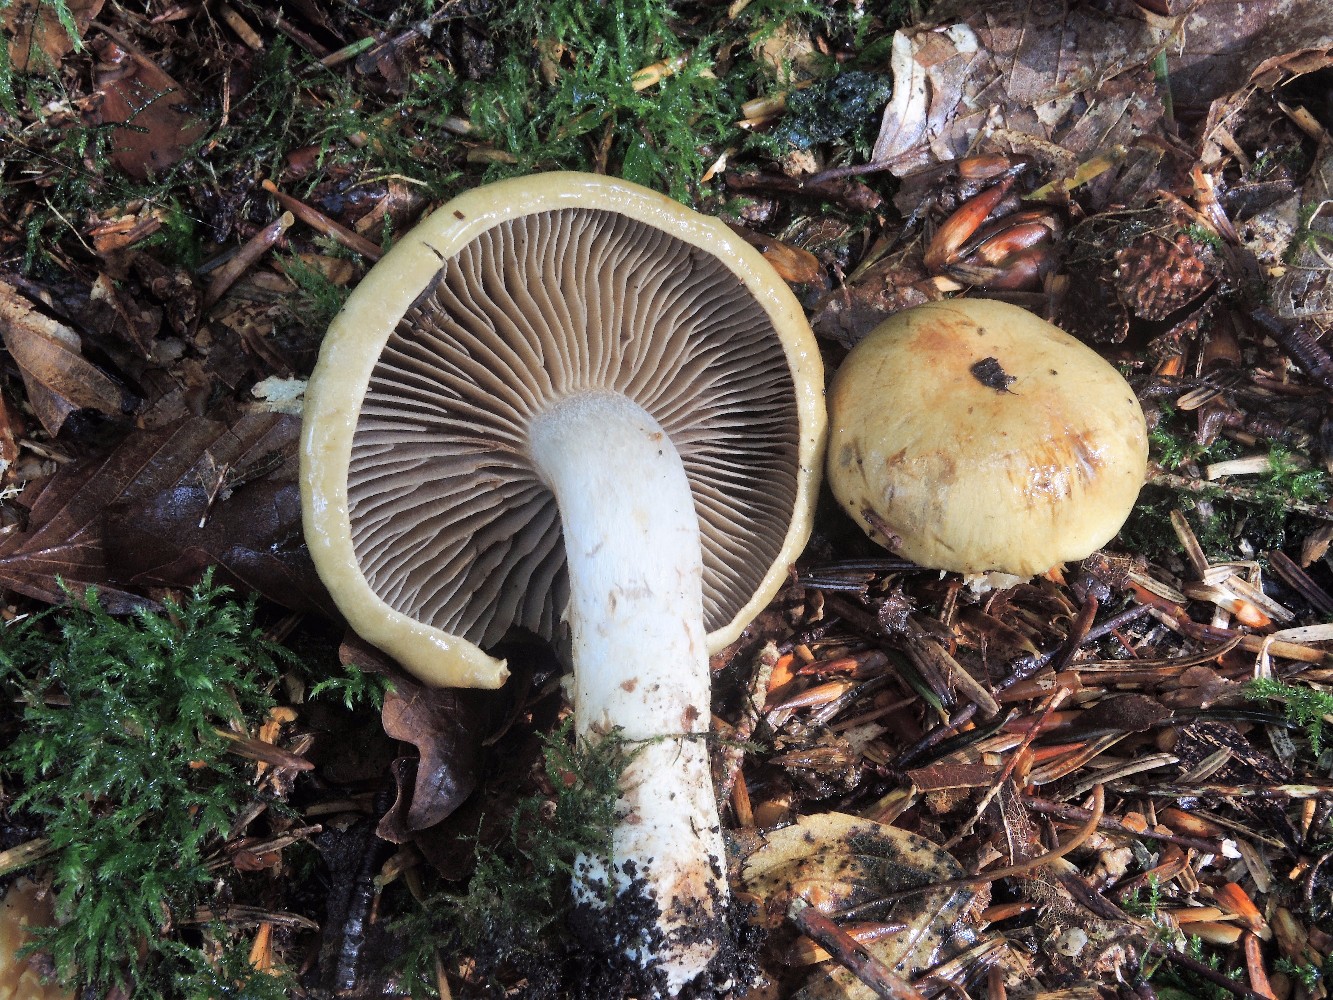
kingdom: Fungi
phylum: Basidiomycota
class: Agaricomycetes
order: Agaricales
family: Cortinariaceae
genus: Cortinarius
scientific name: Cortinarius subtortus
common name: olivengul slørhat
